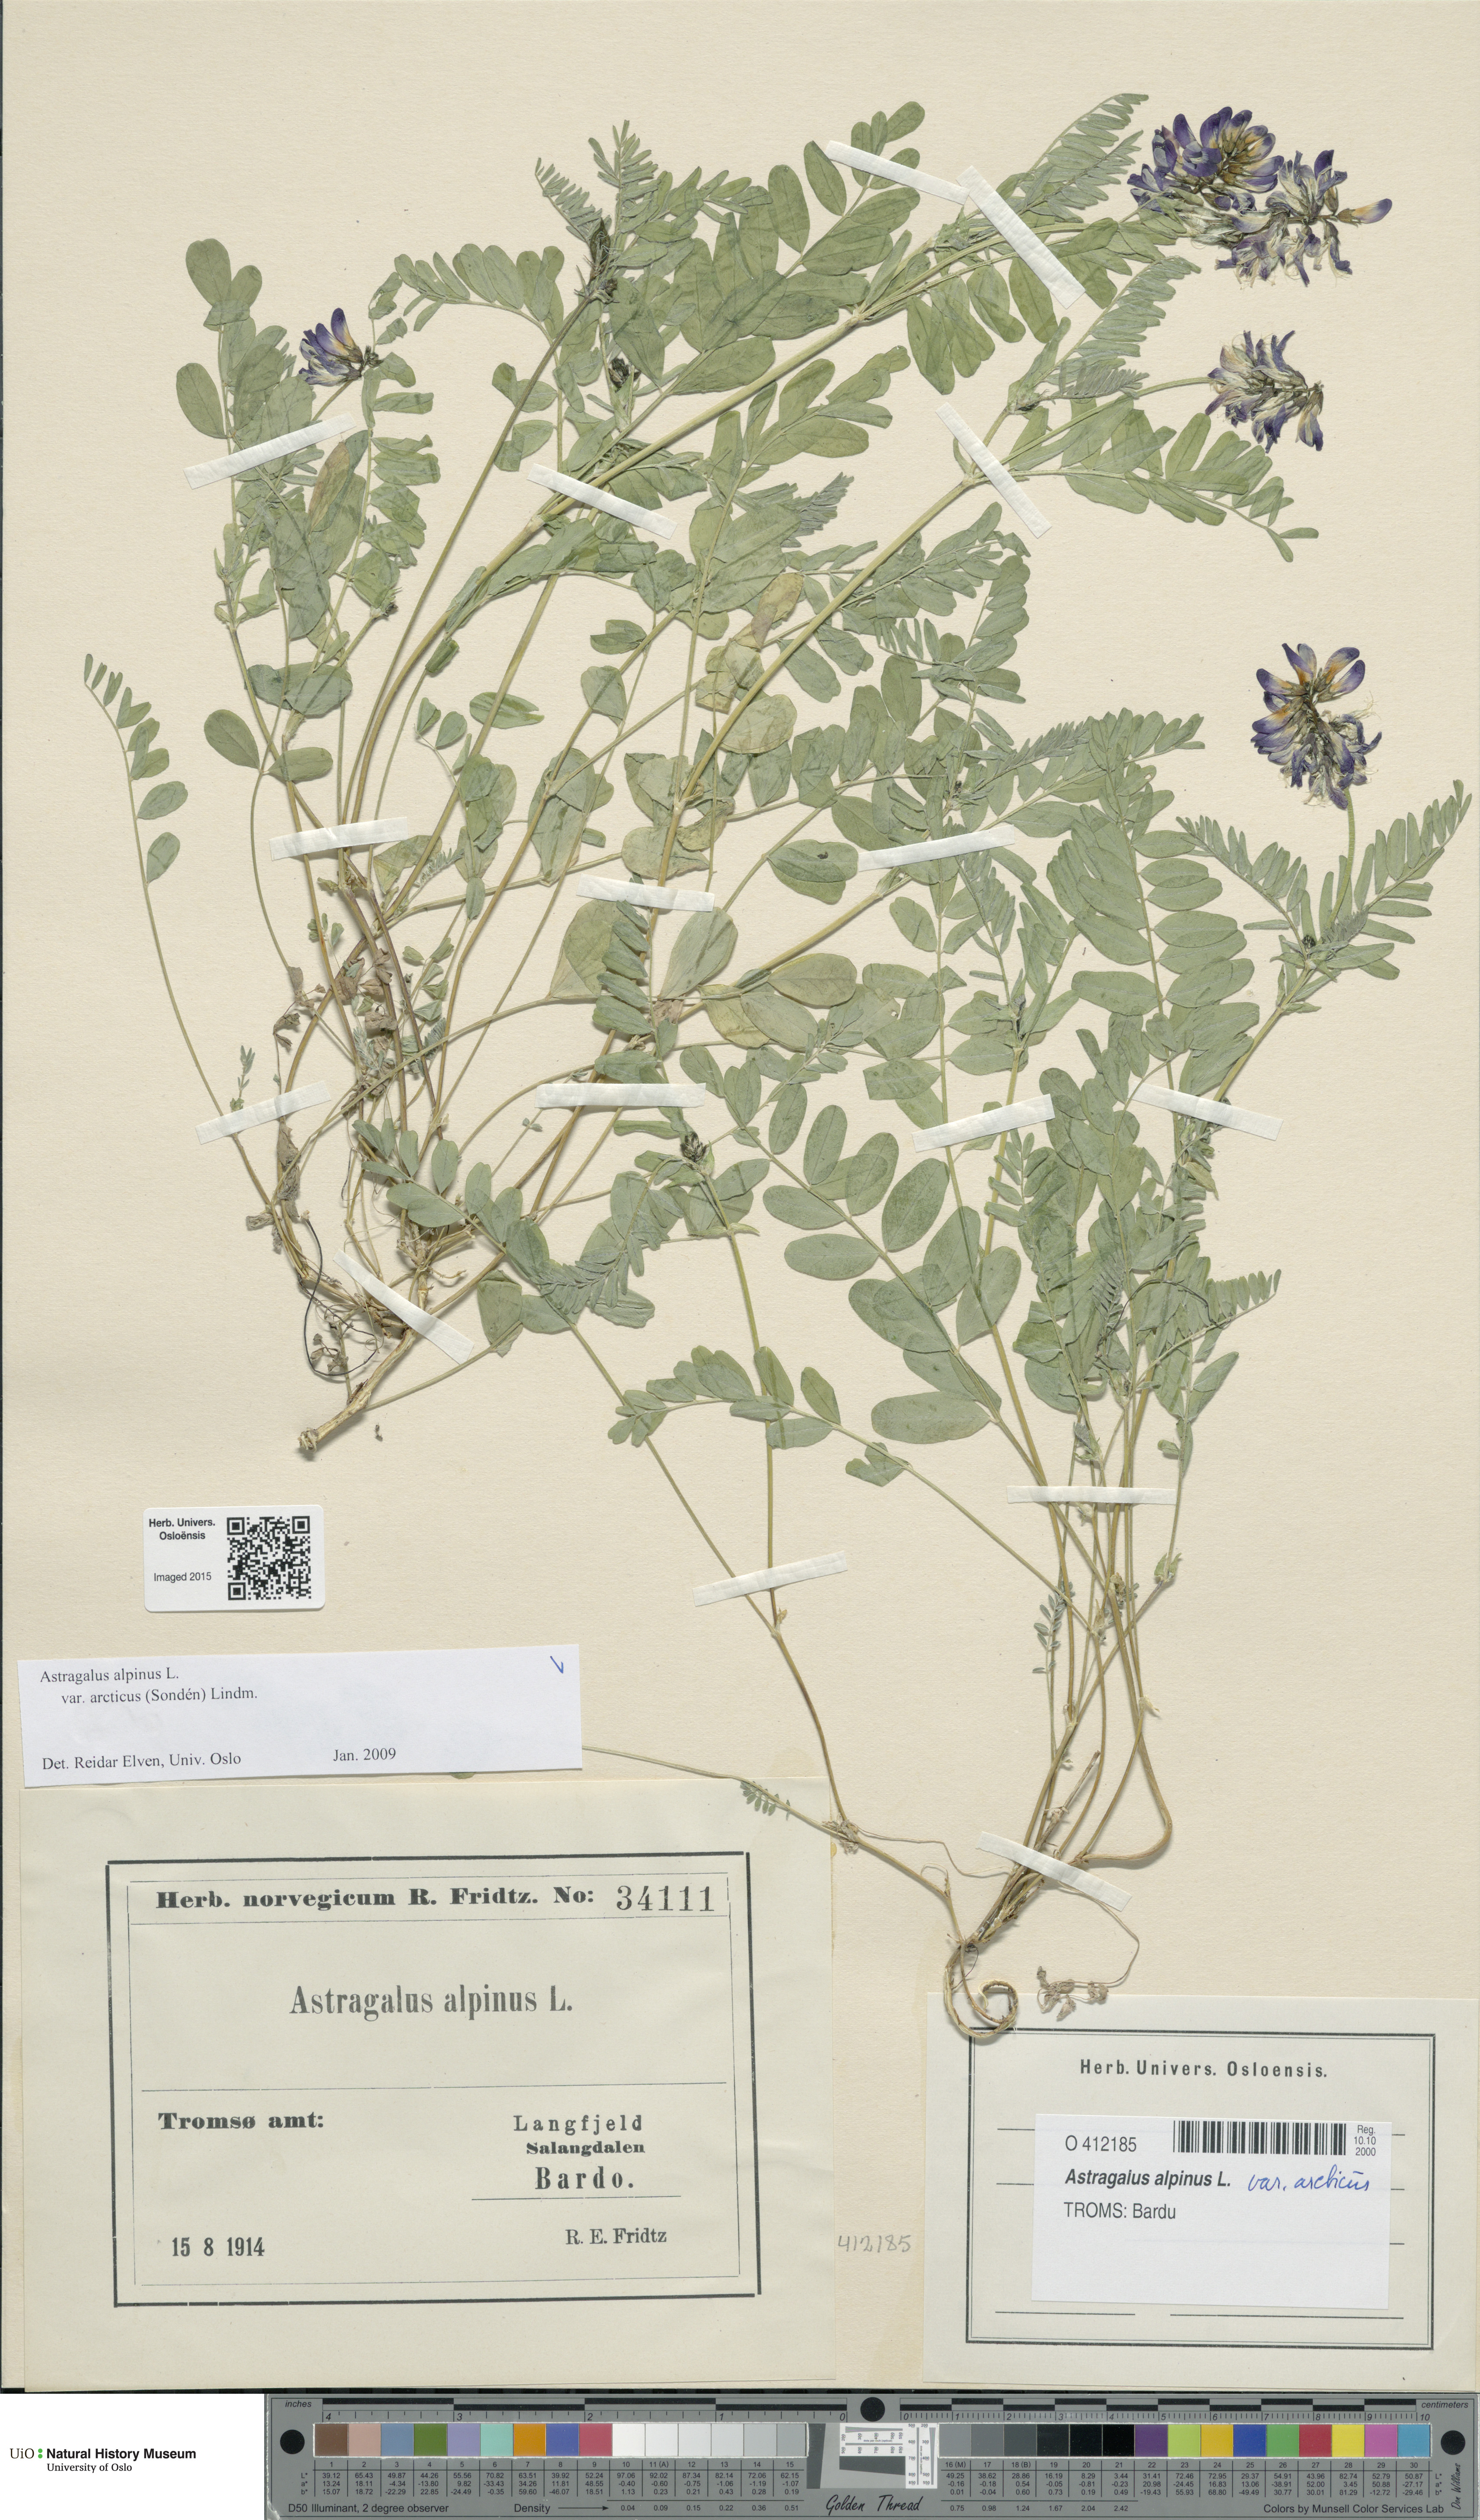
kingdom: Plantae
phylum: Tracheophyta
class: Magnoliopsida
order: Fabales
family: Fabaceae
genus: Astragalus
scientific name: Astragalus norvegicus
